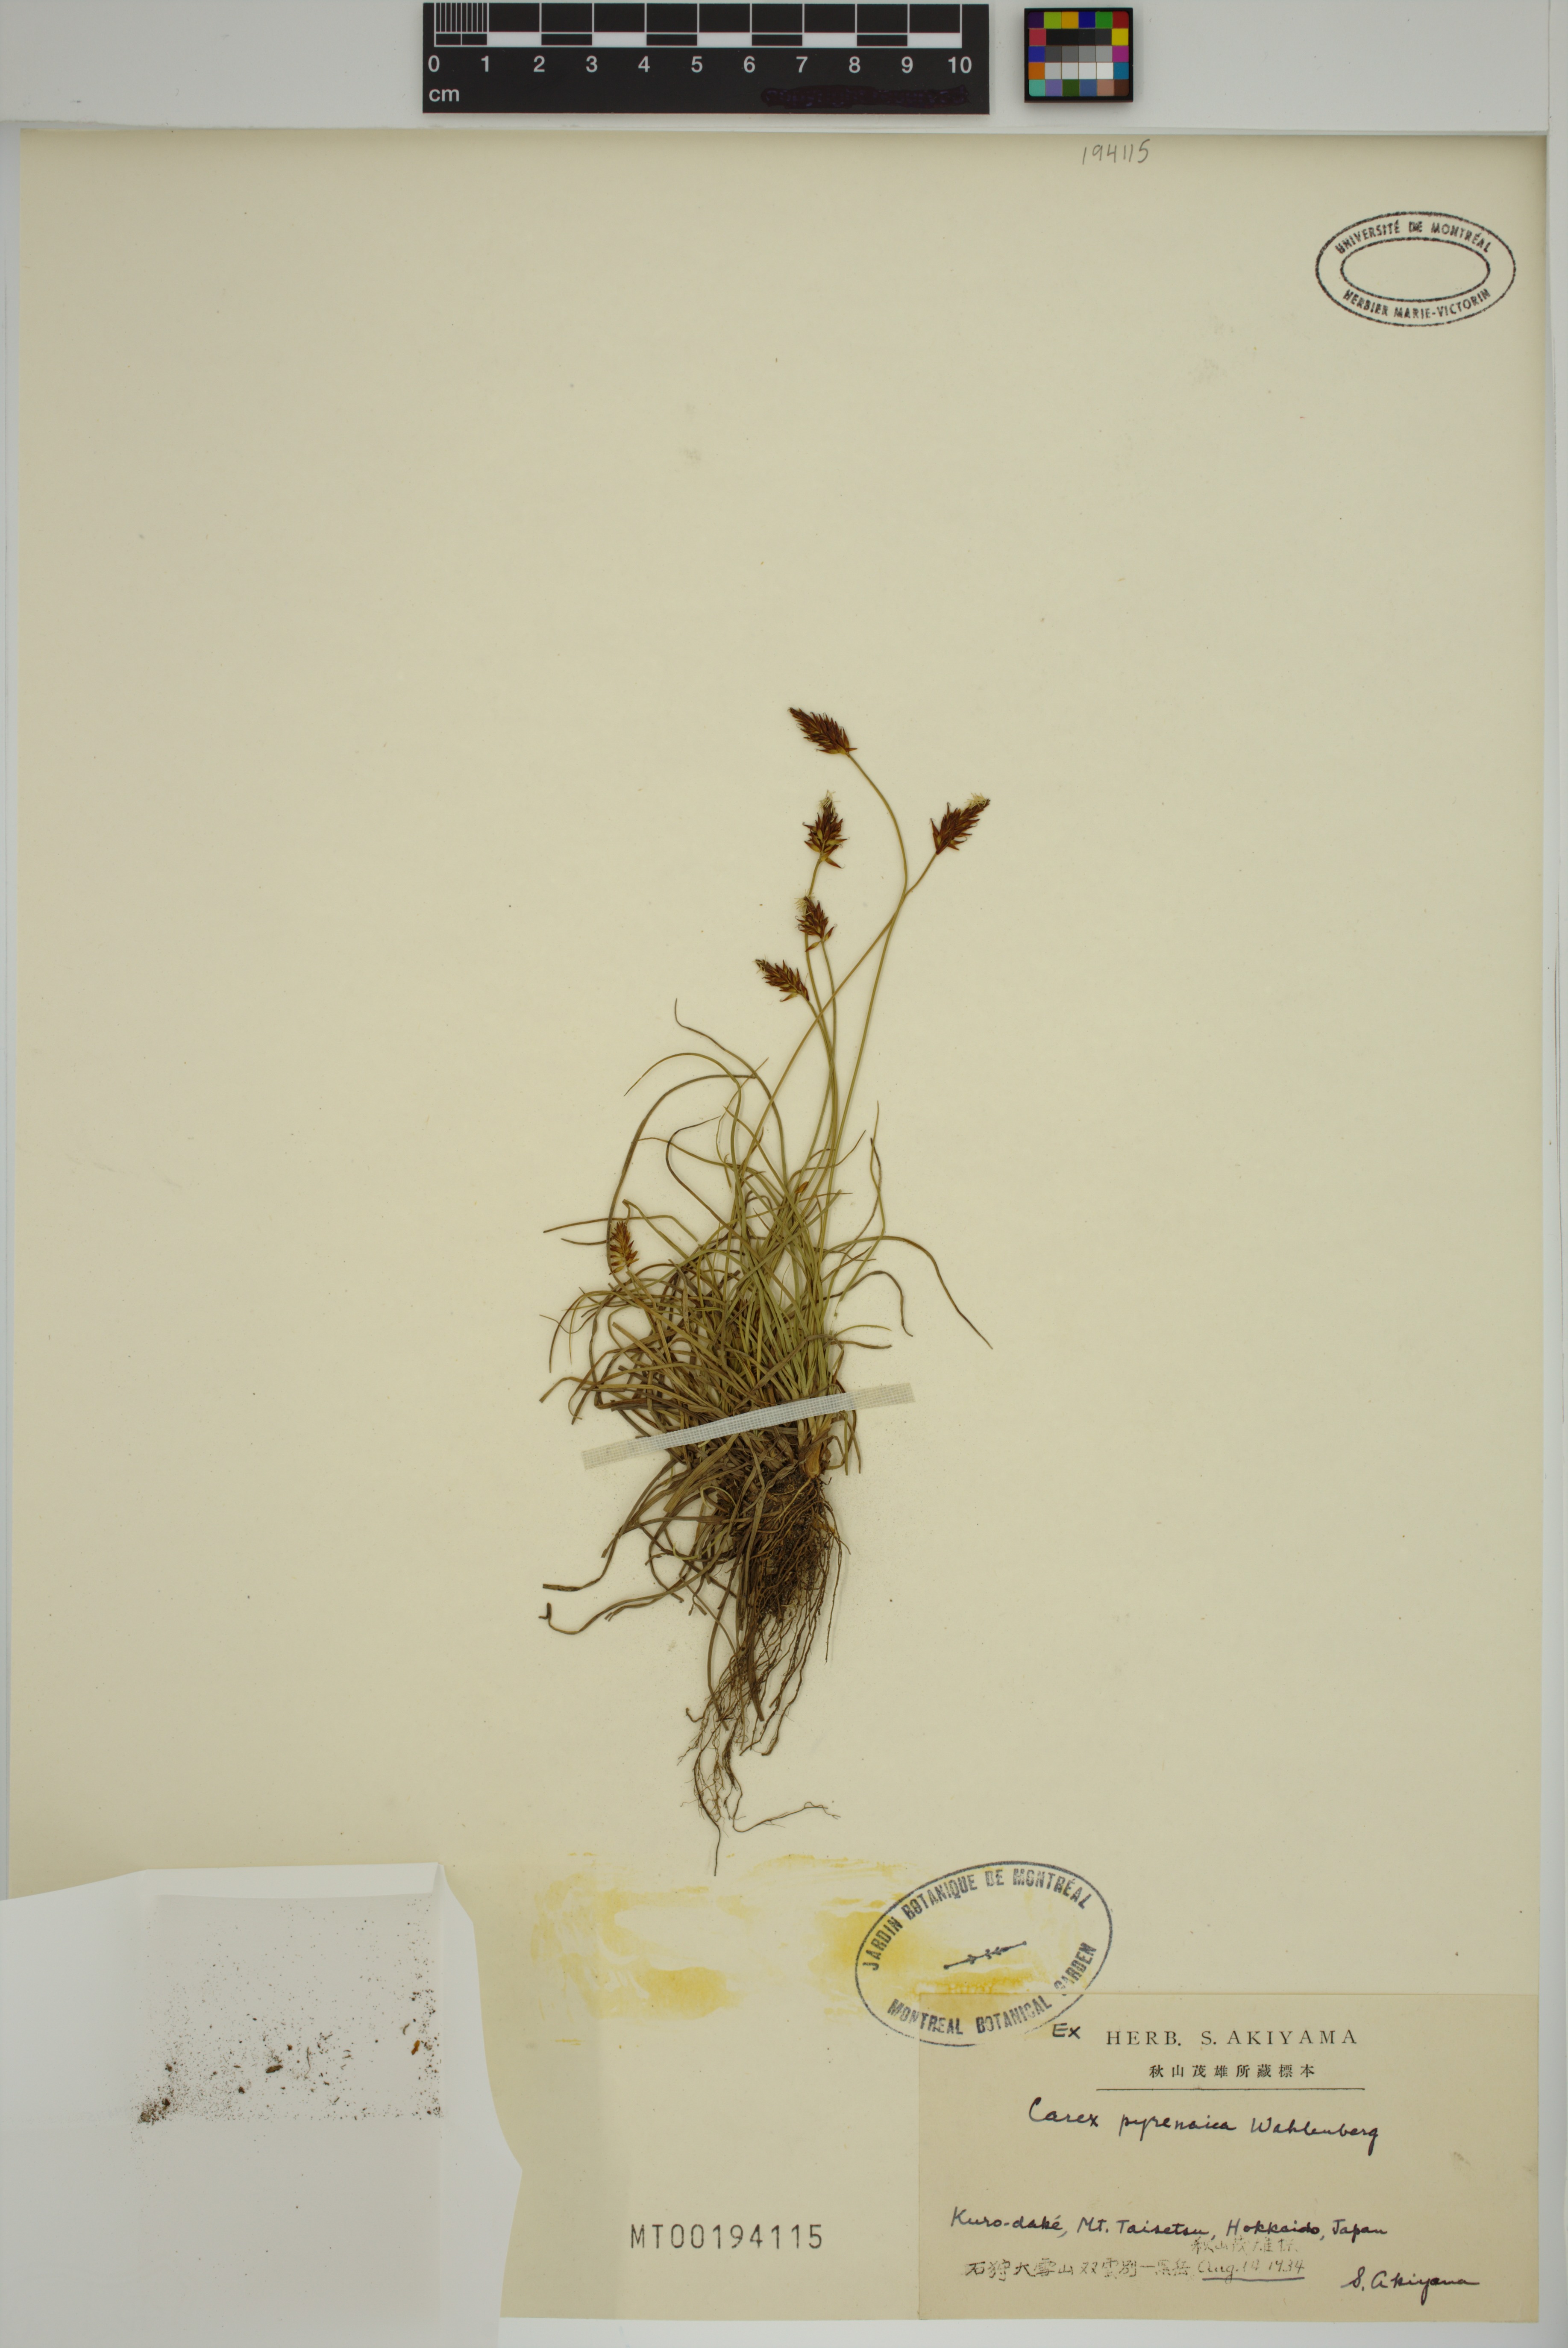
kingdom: Plantae
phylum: Tracheophyta
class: Liliopsida
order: Poales
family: Cyperaceae
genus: Carex
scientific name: Carex pyrenaica
